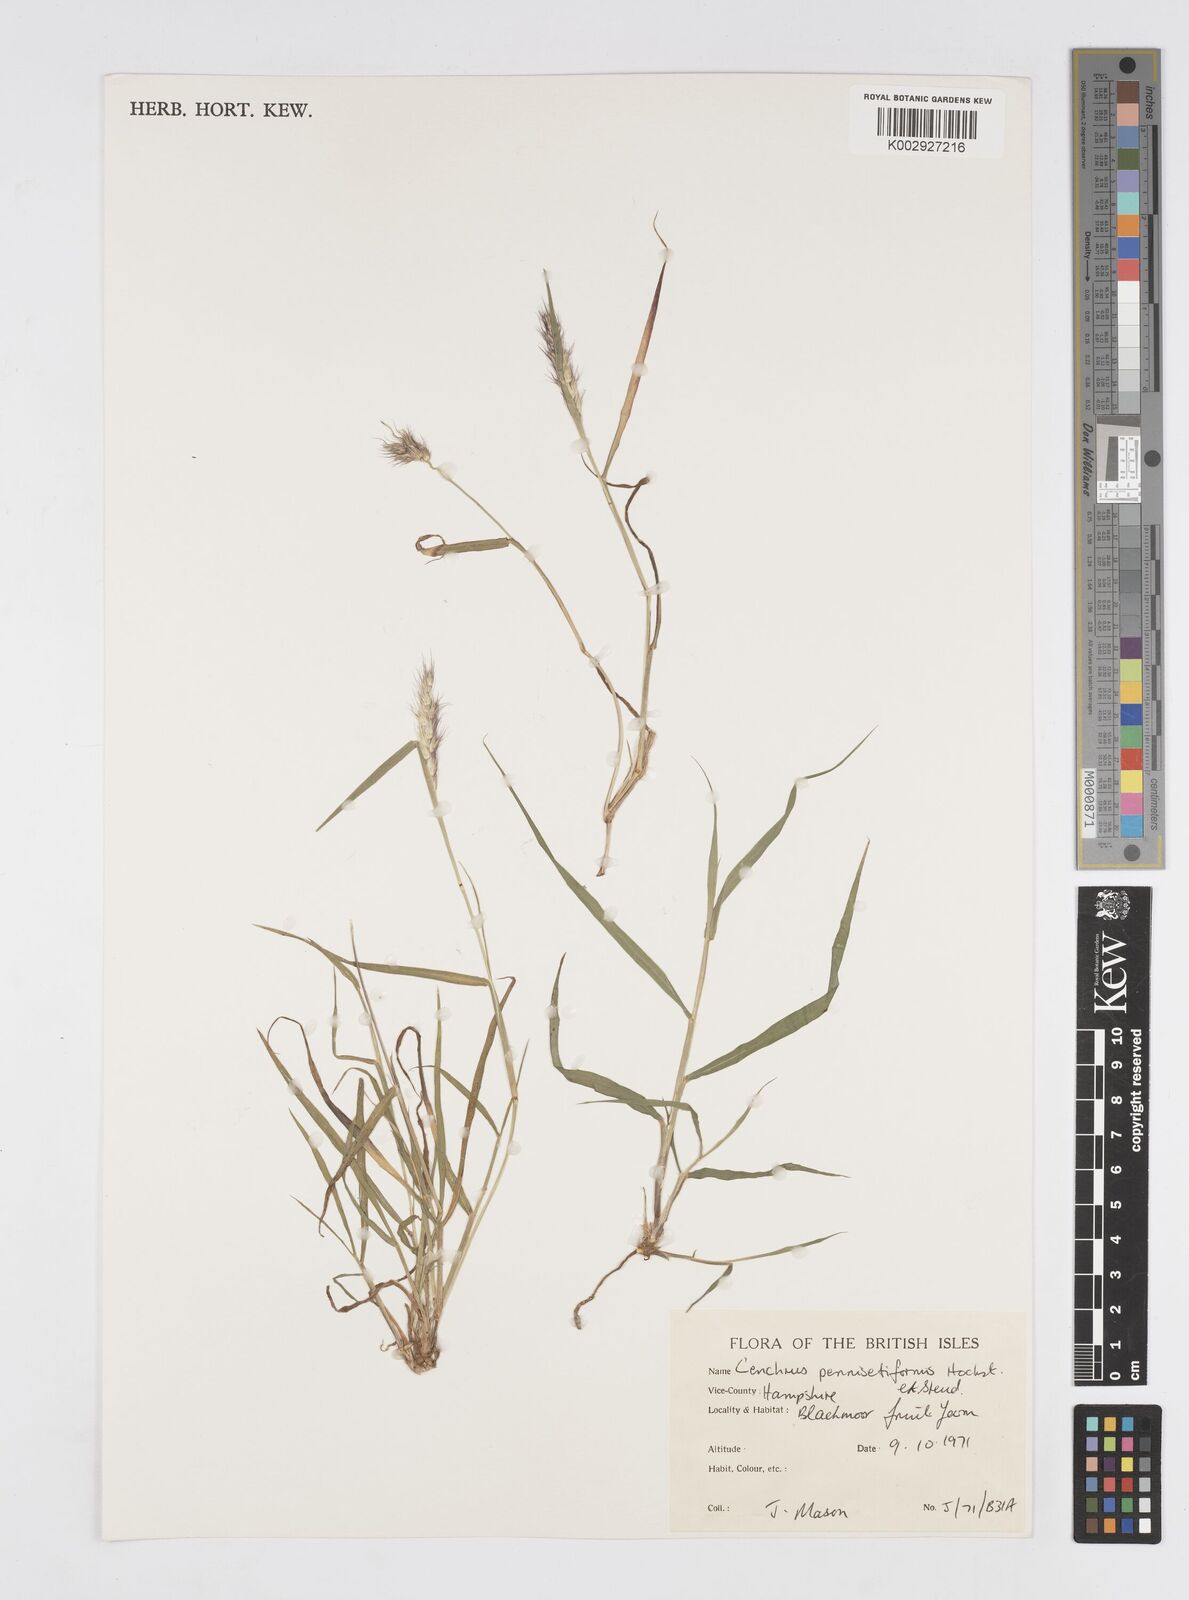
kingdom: Plantae
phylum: Tracheophyta
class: Liliopsida
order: Poales
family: Poaceae
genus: Cenchrus
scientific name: Cenchrus pennisetiformis
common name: Cloncurry
